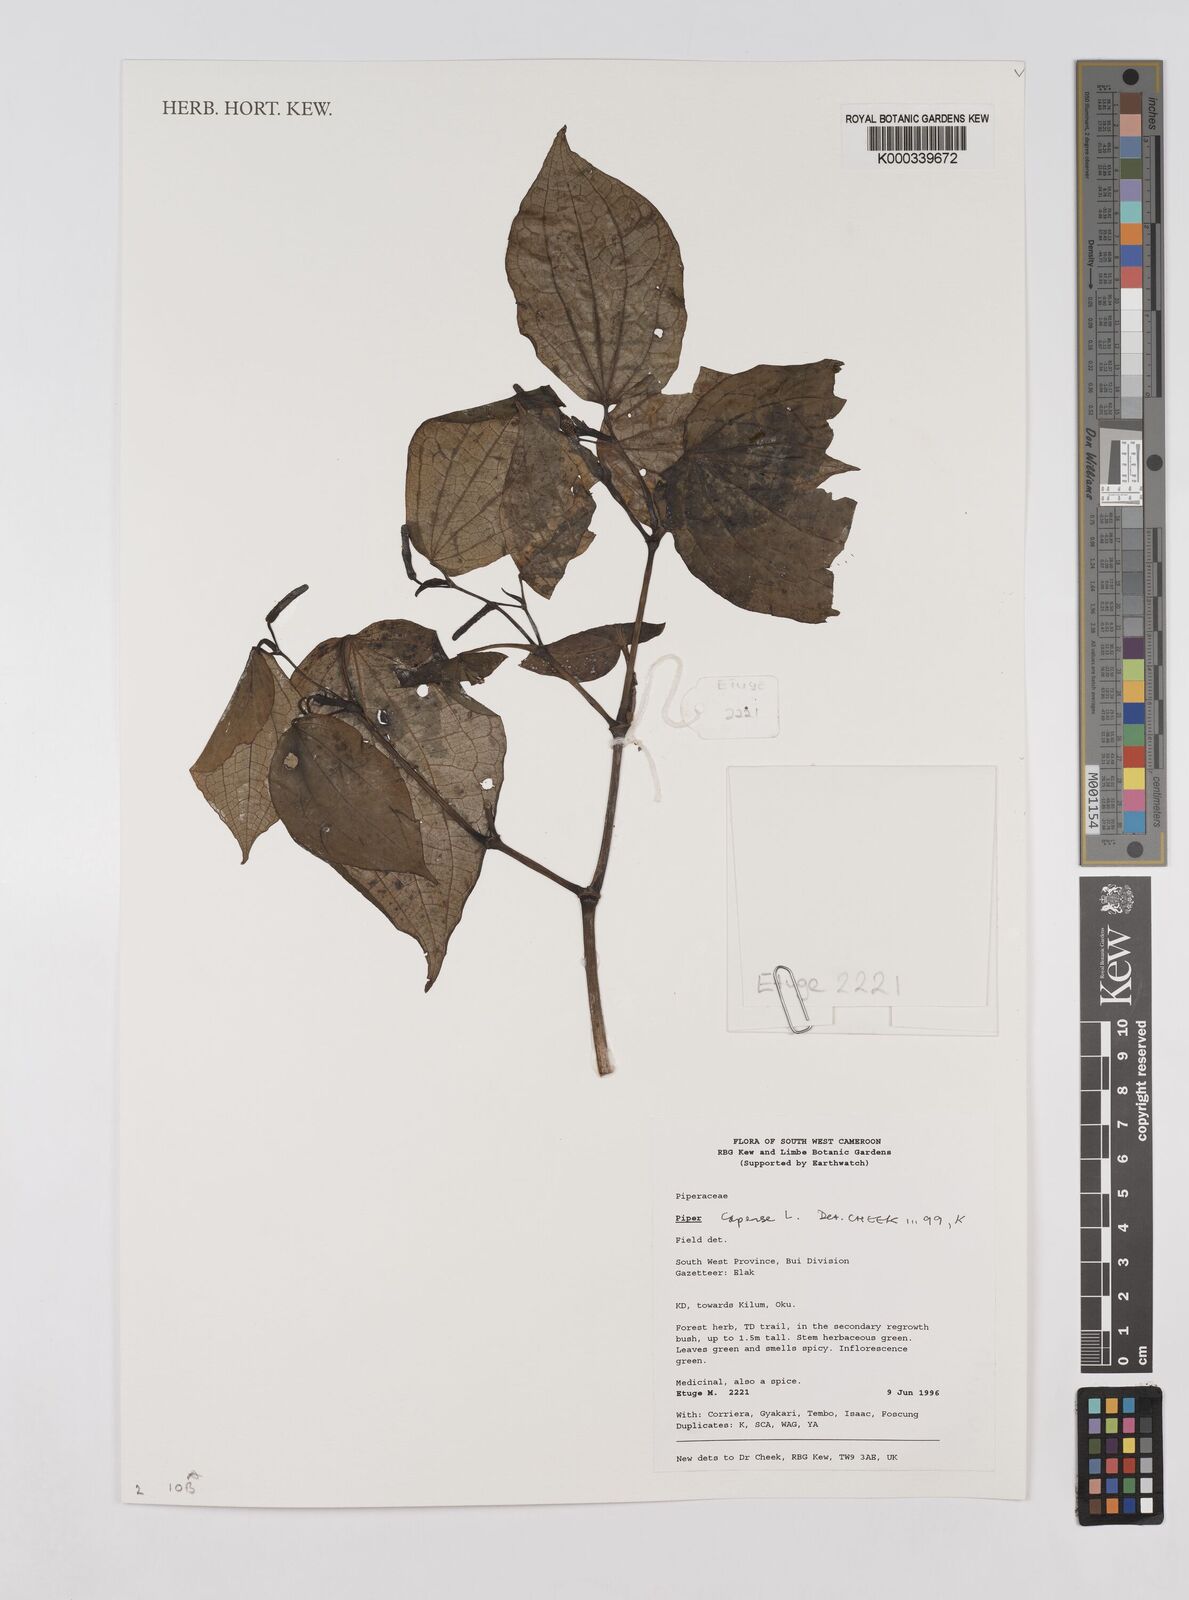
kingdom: Plantae
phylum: Tracheophyta
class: Magnoliopsida
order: Piperales
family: Piperaceae
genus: Piper
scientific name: Piper capense
